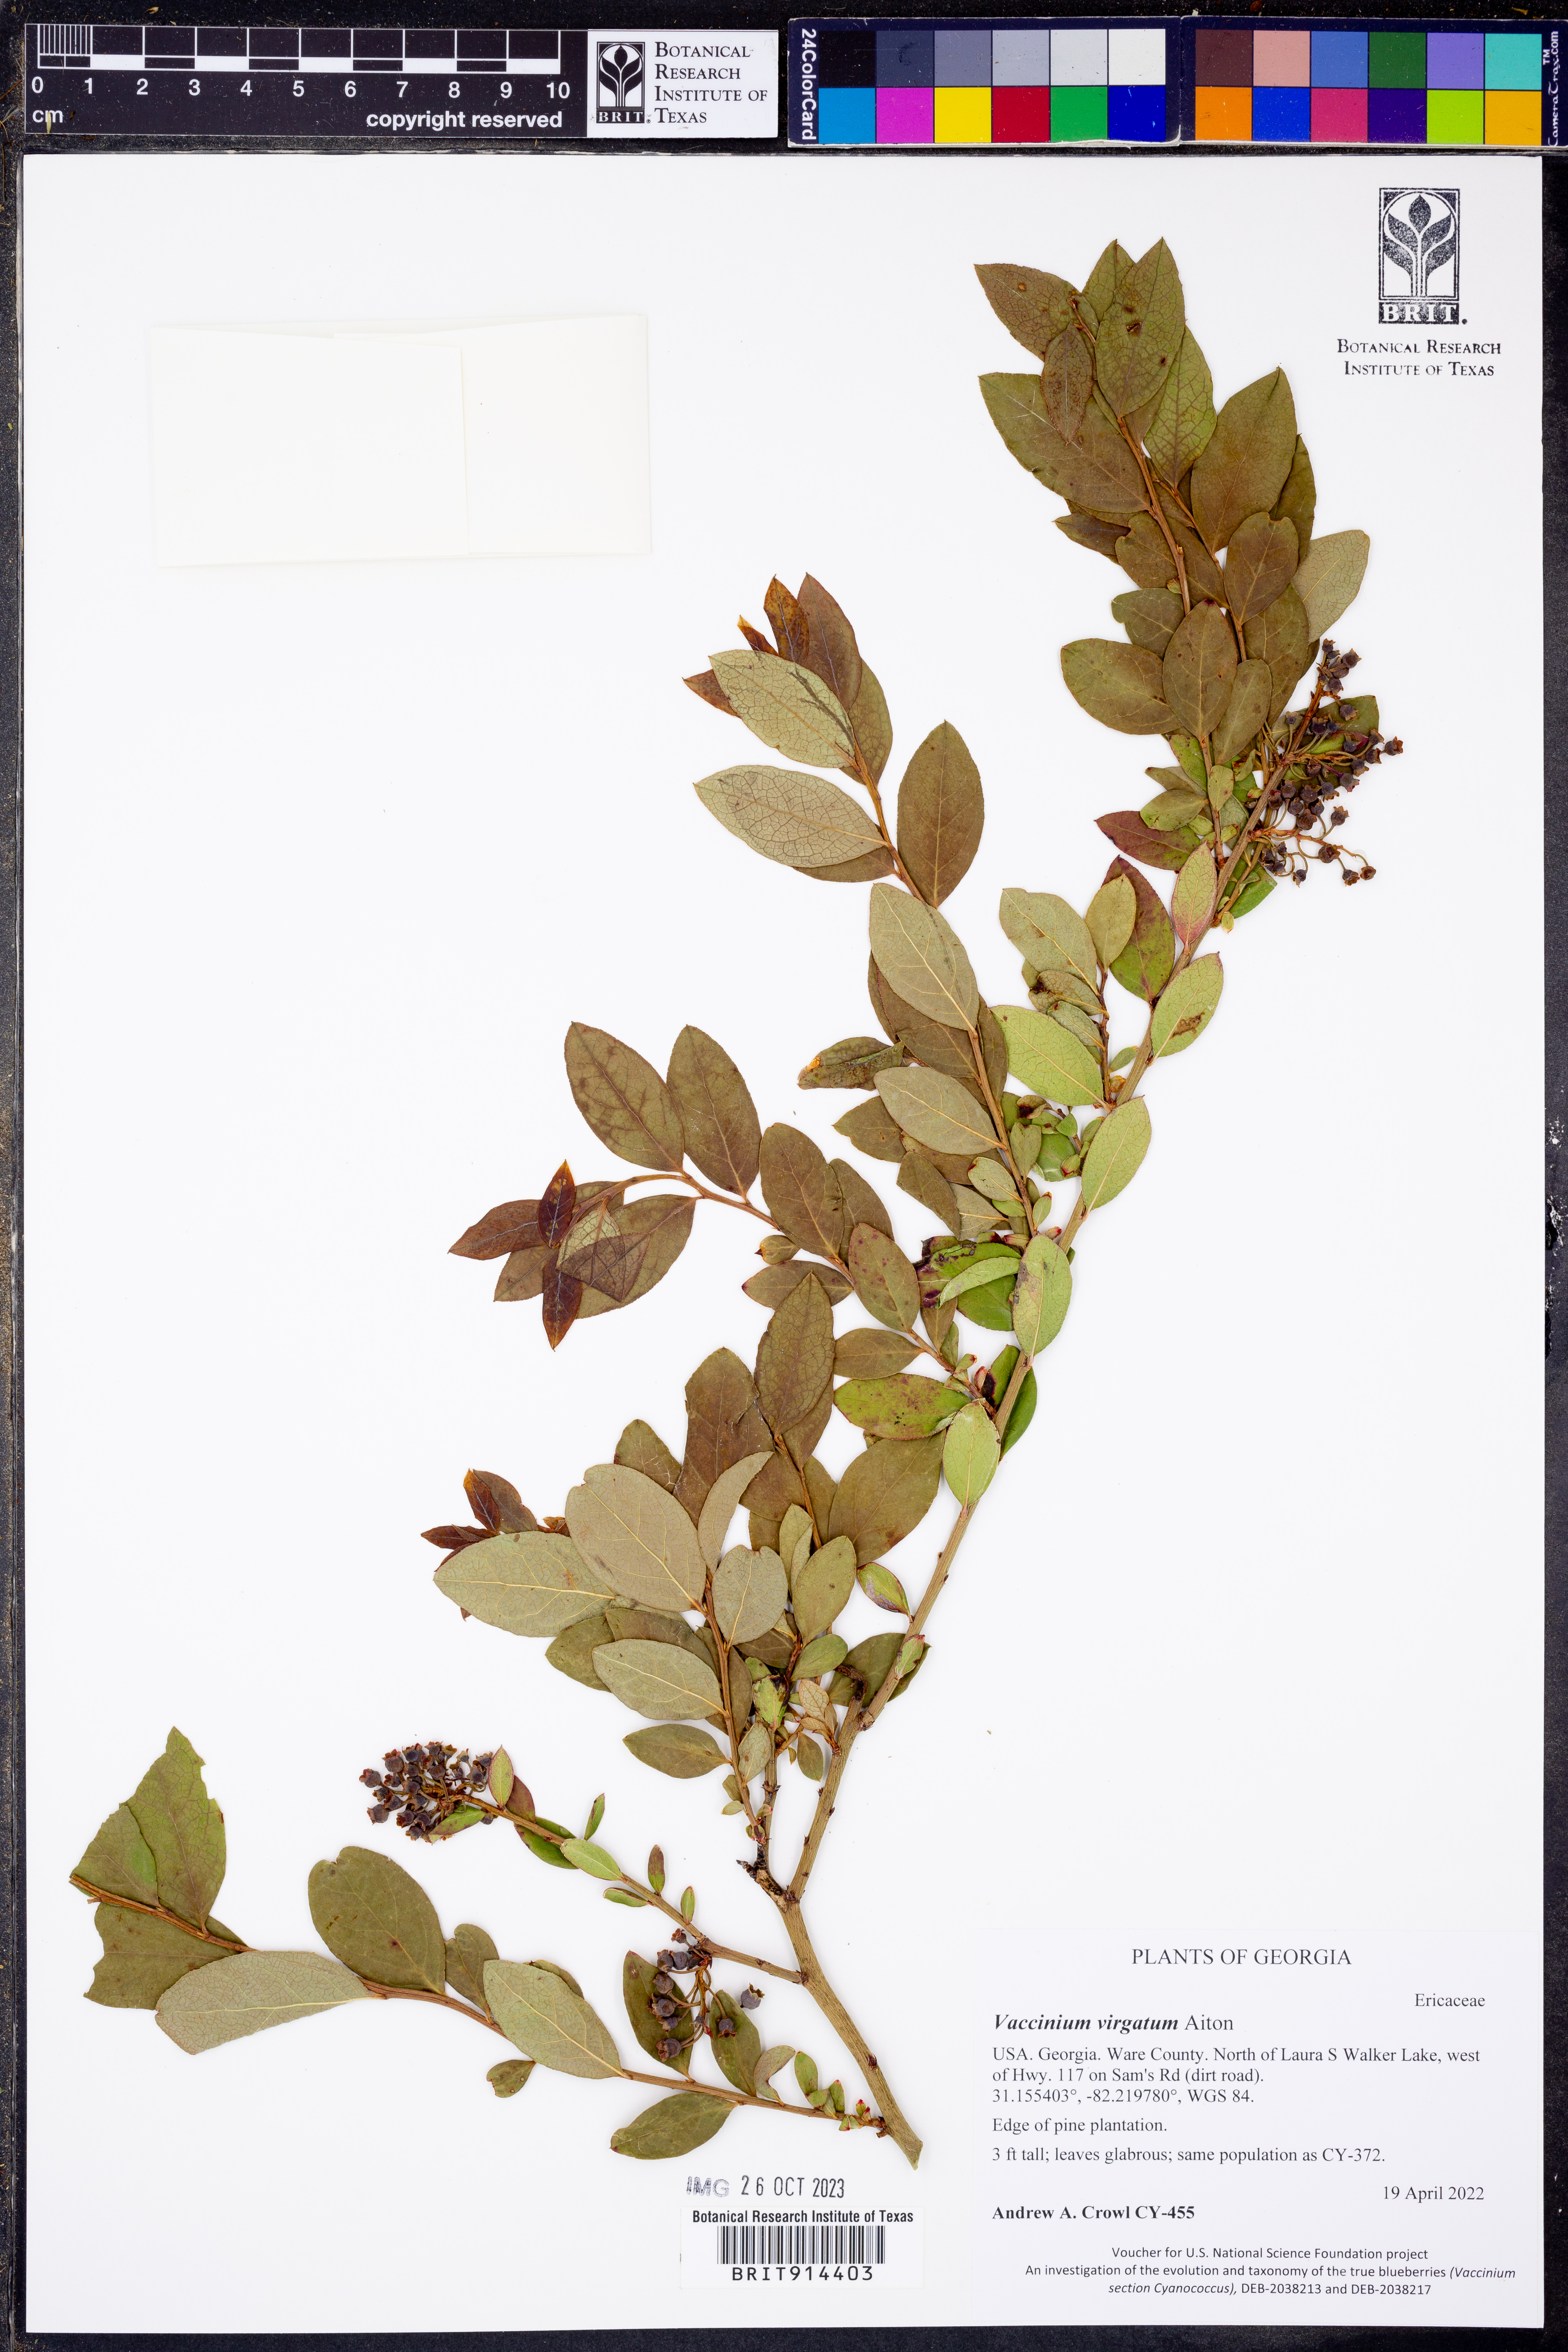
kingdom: Plantae
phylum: Tracheophyta
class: Magnoliopsida
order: Ericales
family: Ericaceae
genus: Vaccinium
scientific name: Vaccinium corymbosum
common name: Blueberry
